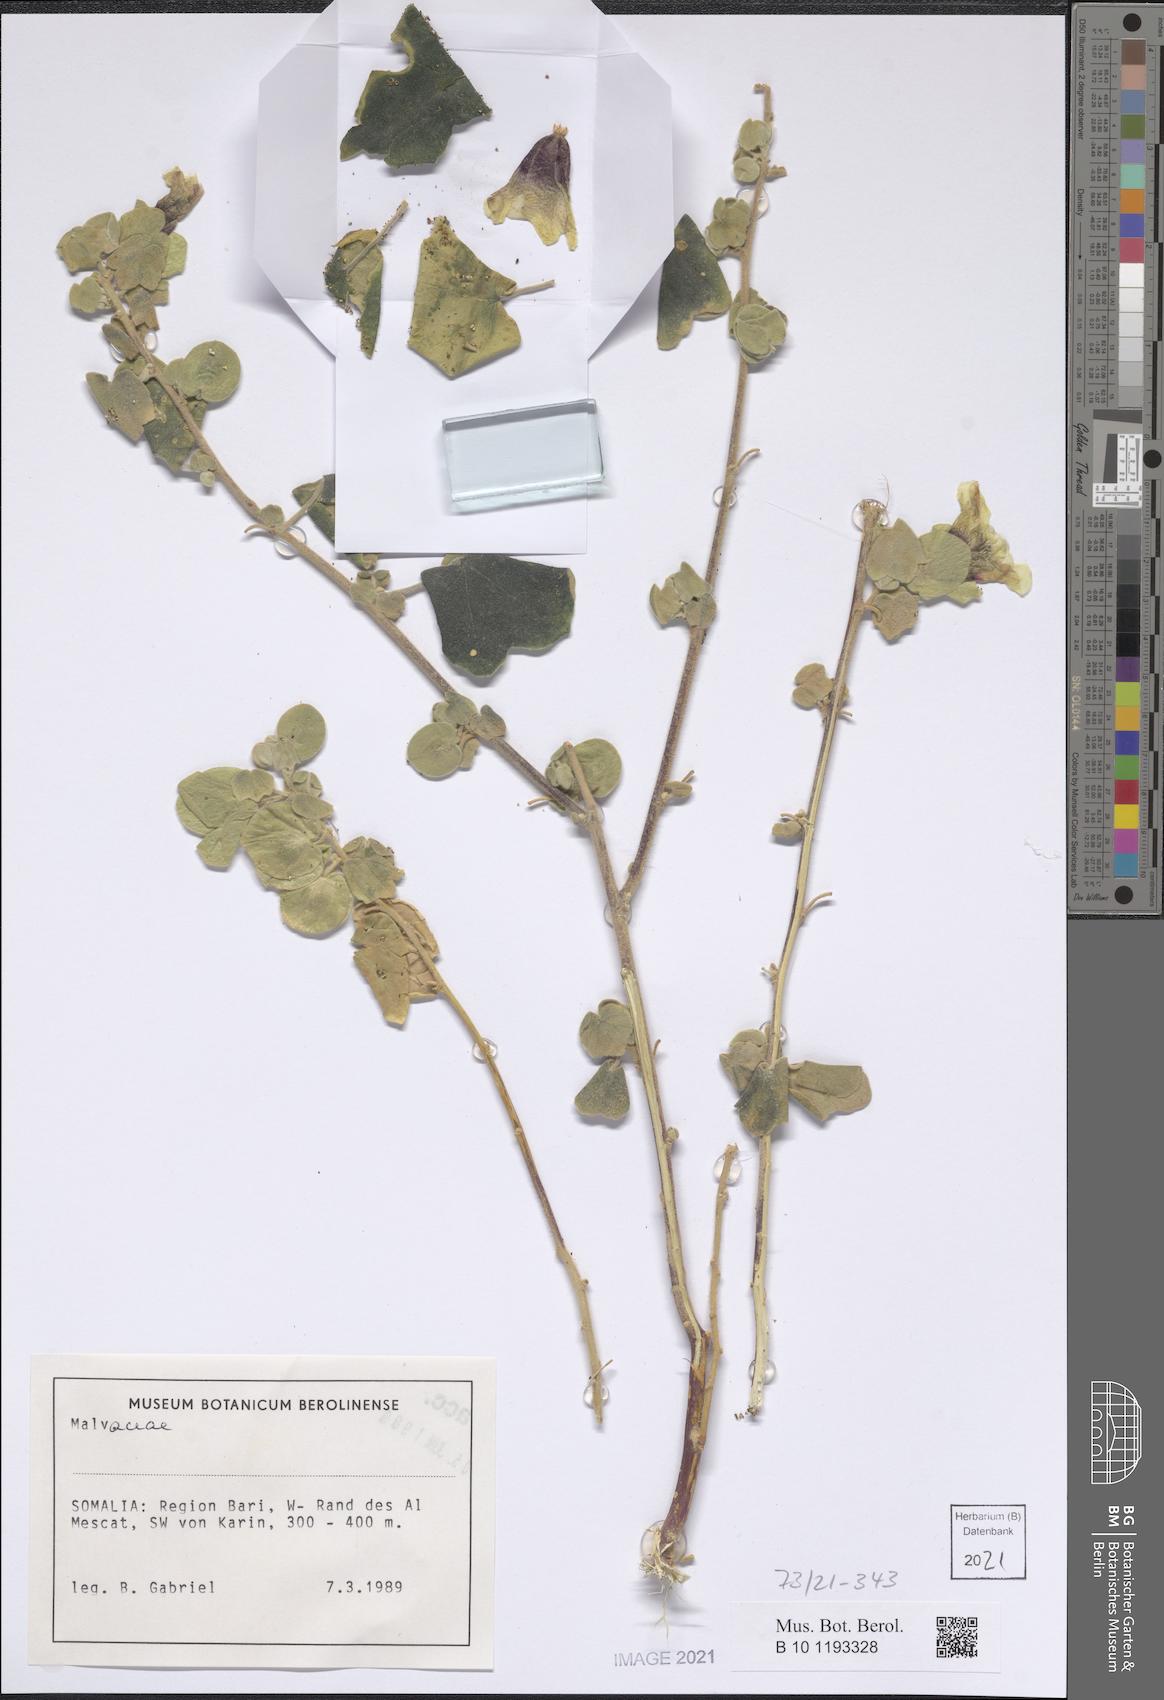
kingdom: Plantae
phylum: Tracheophyta
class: Magnoliopsida
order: Malvales
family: Malvaceae
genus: Senra
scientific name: Senra incana
